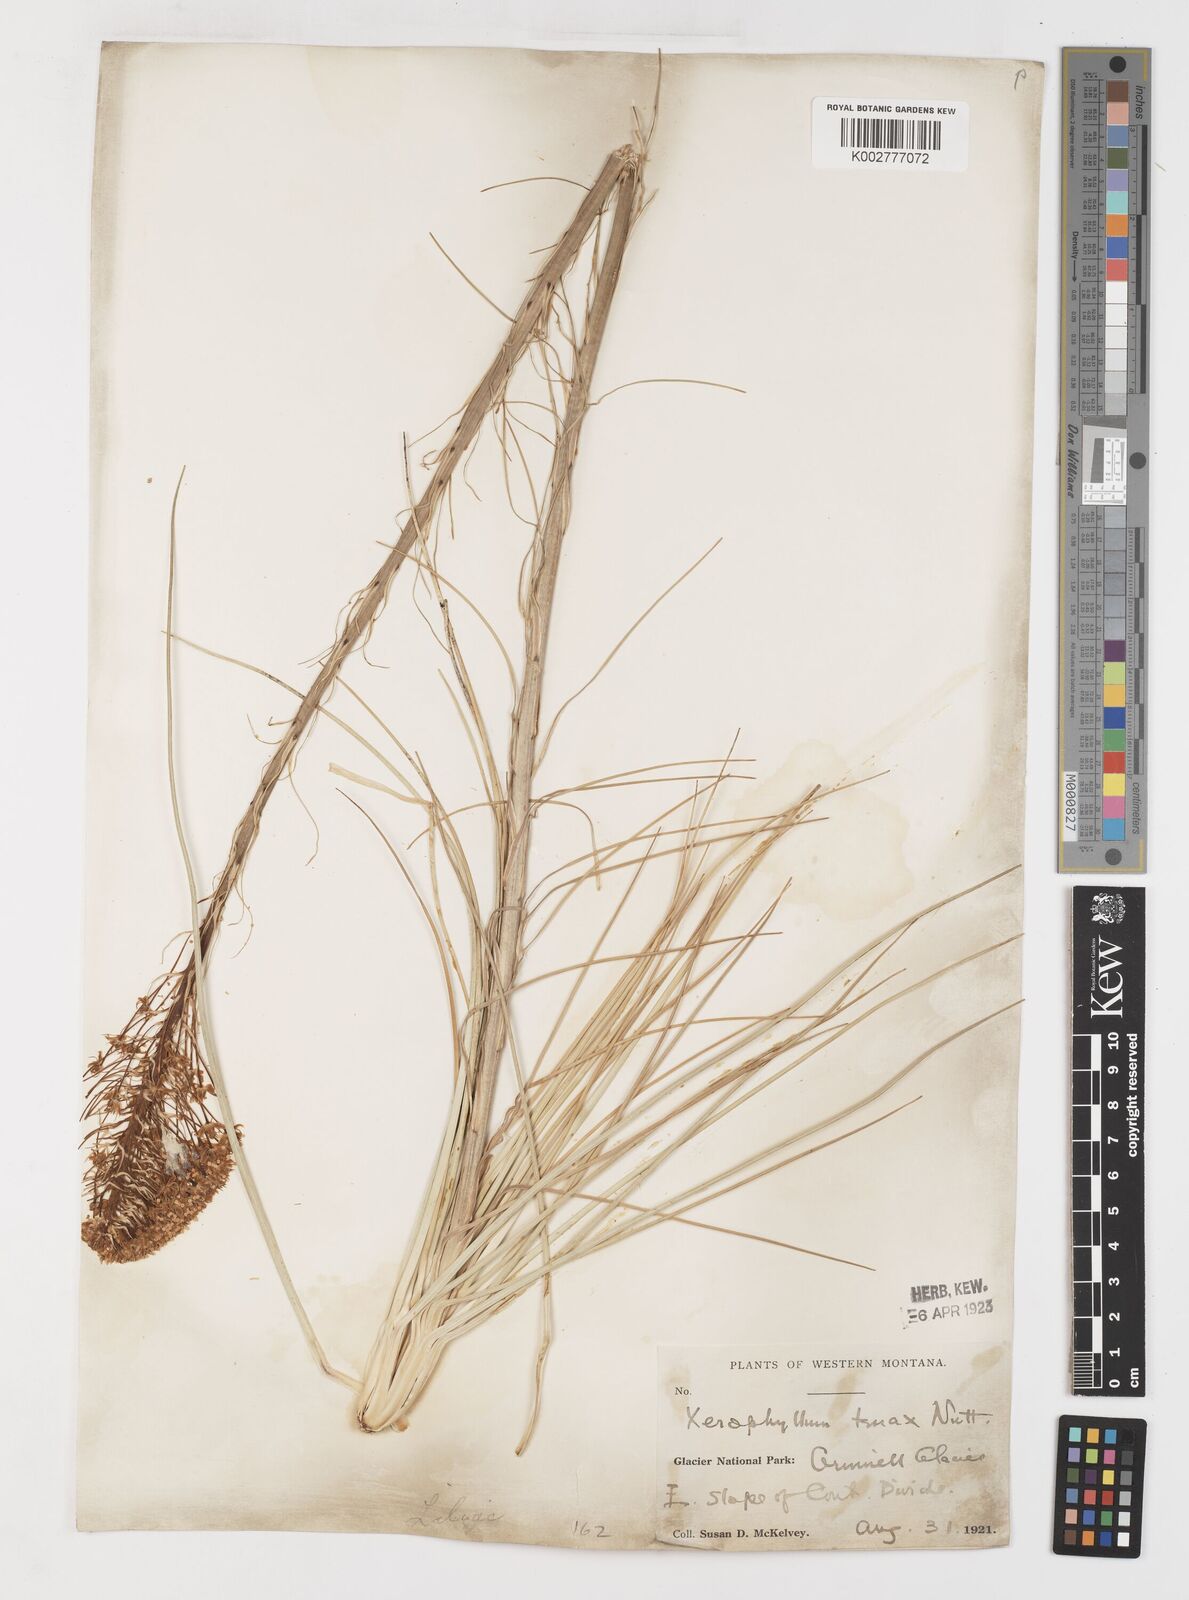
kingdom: Plantae
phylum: Tracheophyta
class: Liliopsida
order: Liliales
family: Melanthiaceae
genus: Xerophyllum
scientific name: Xerophyllum tenax
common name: Bear-grass
